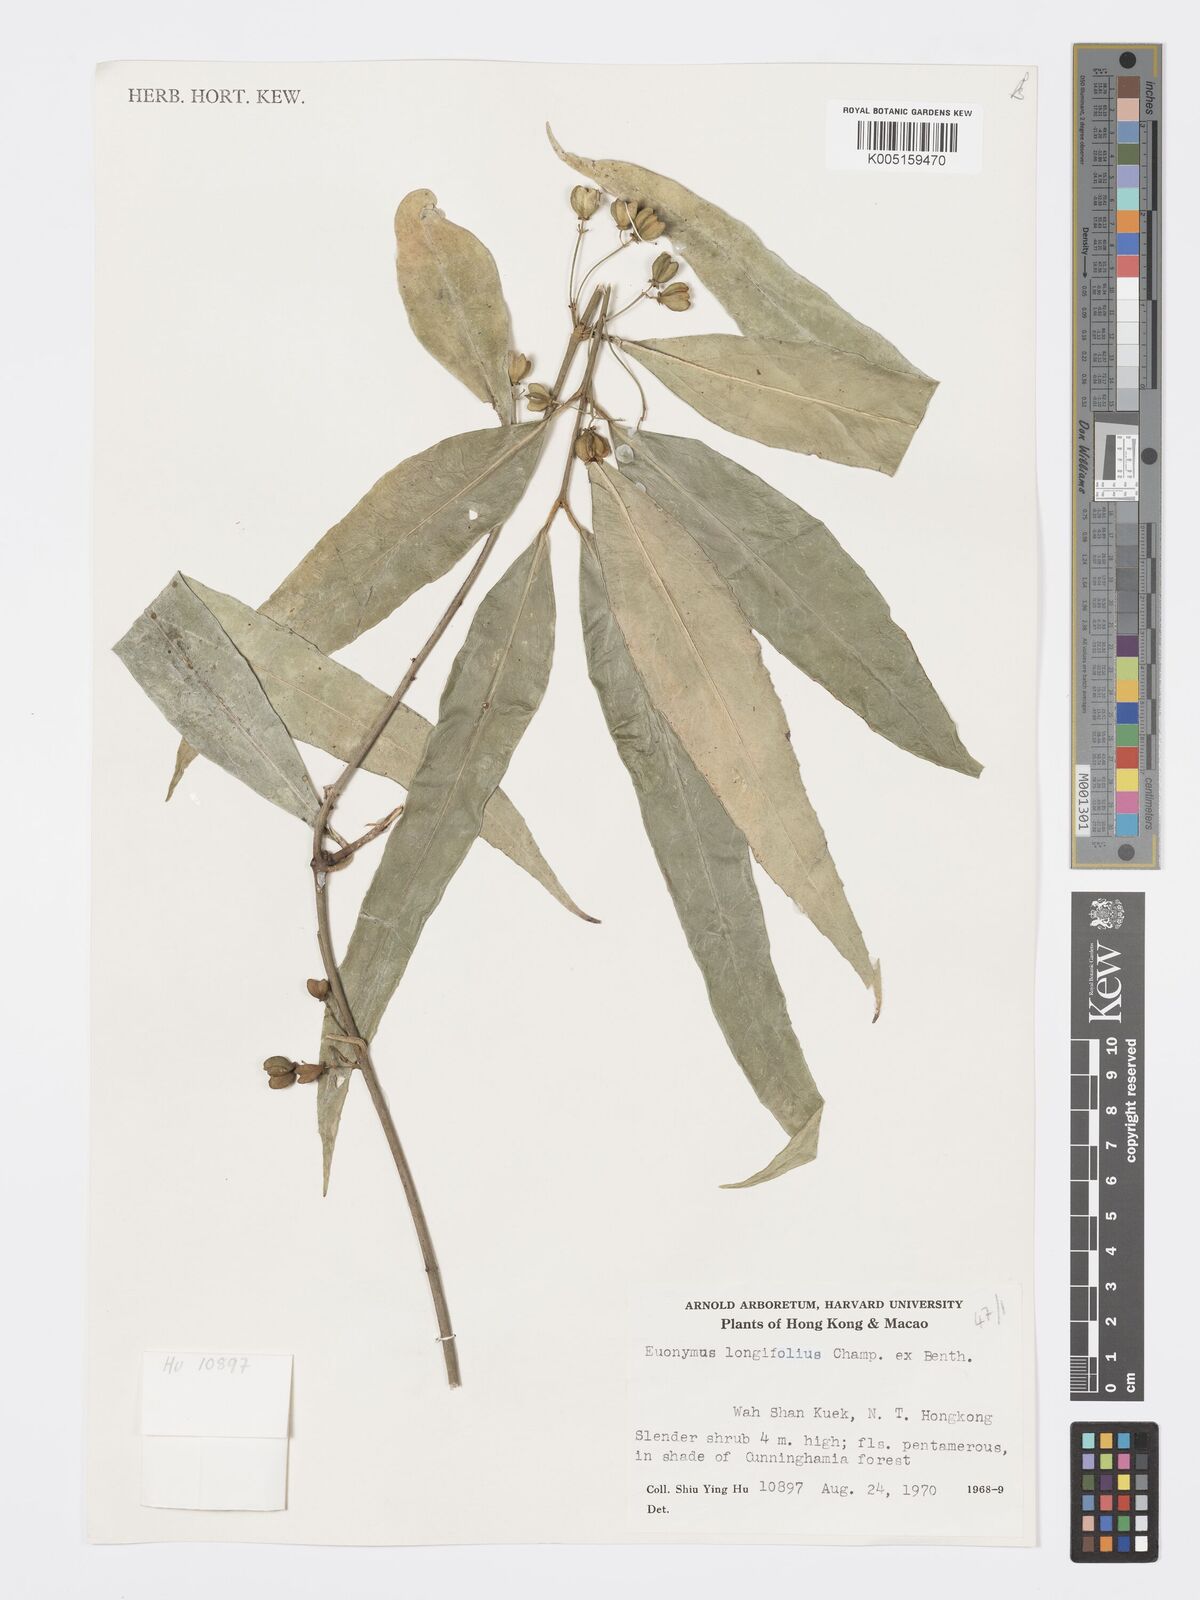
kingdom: Plantae
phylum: Tracheophyta
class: Magnoliopsida
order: Celastrales
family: Celastraceae
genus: Euonymus
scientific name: Euonymus tsoi
